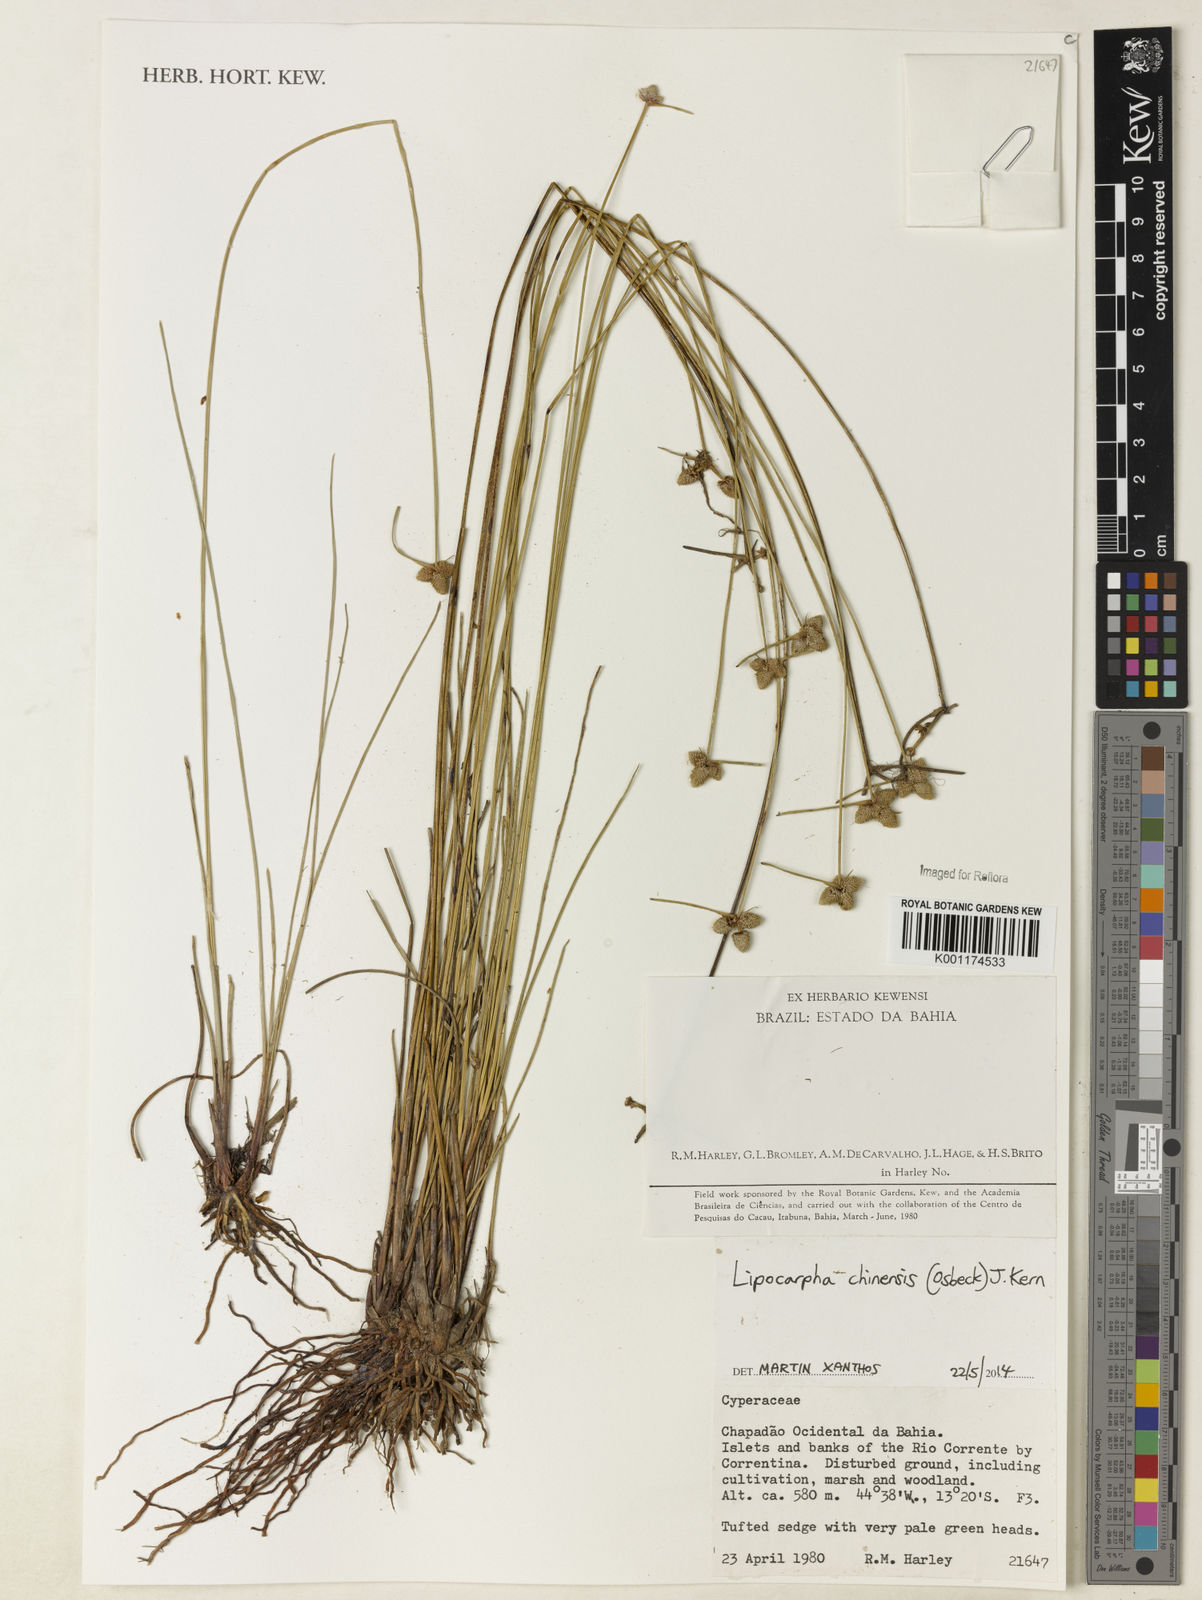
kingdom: Plantae
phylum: Tracheophyta
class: Liliopsida
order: Poales
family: Cyperaceae
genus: Cyperus
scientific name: Cyperus
